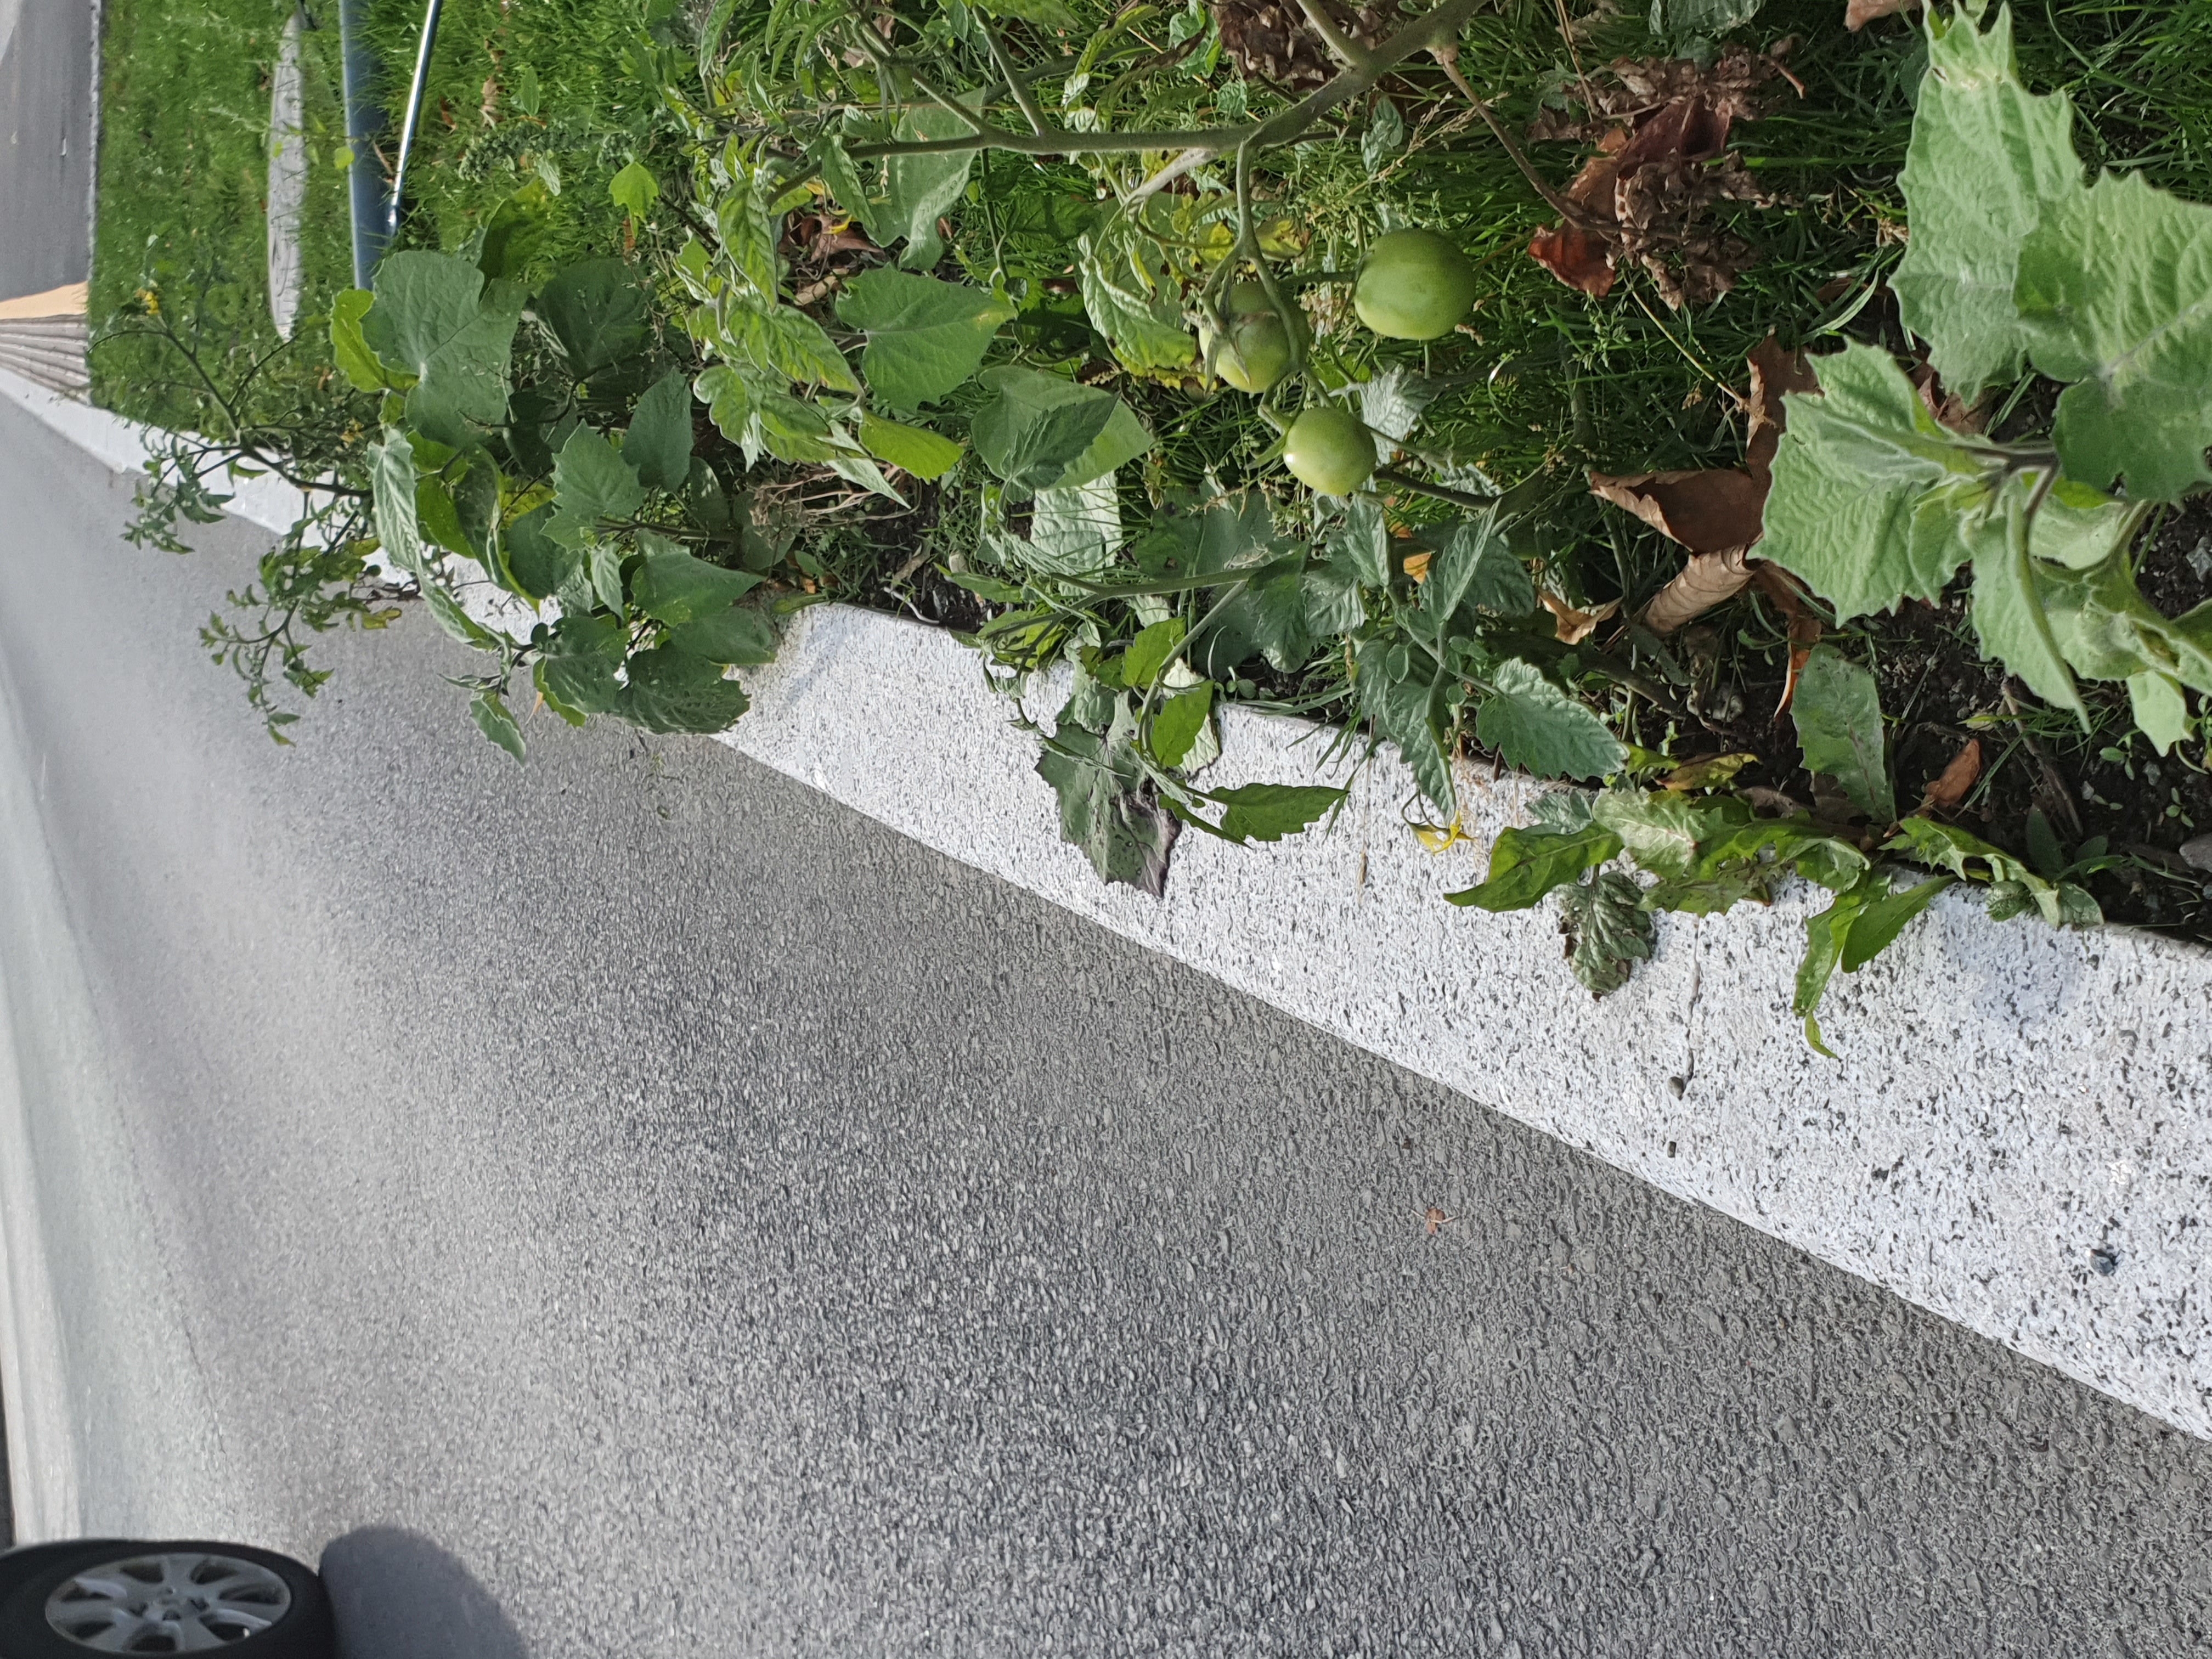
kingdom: Plantae
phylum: Tracheophyta
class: Magnoliopsida
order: Solanales
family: Solanaceae
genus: Physalis
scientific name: Physalis peruviana
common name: Cape-gooseberry
